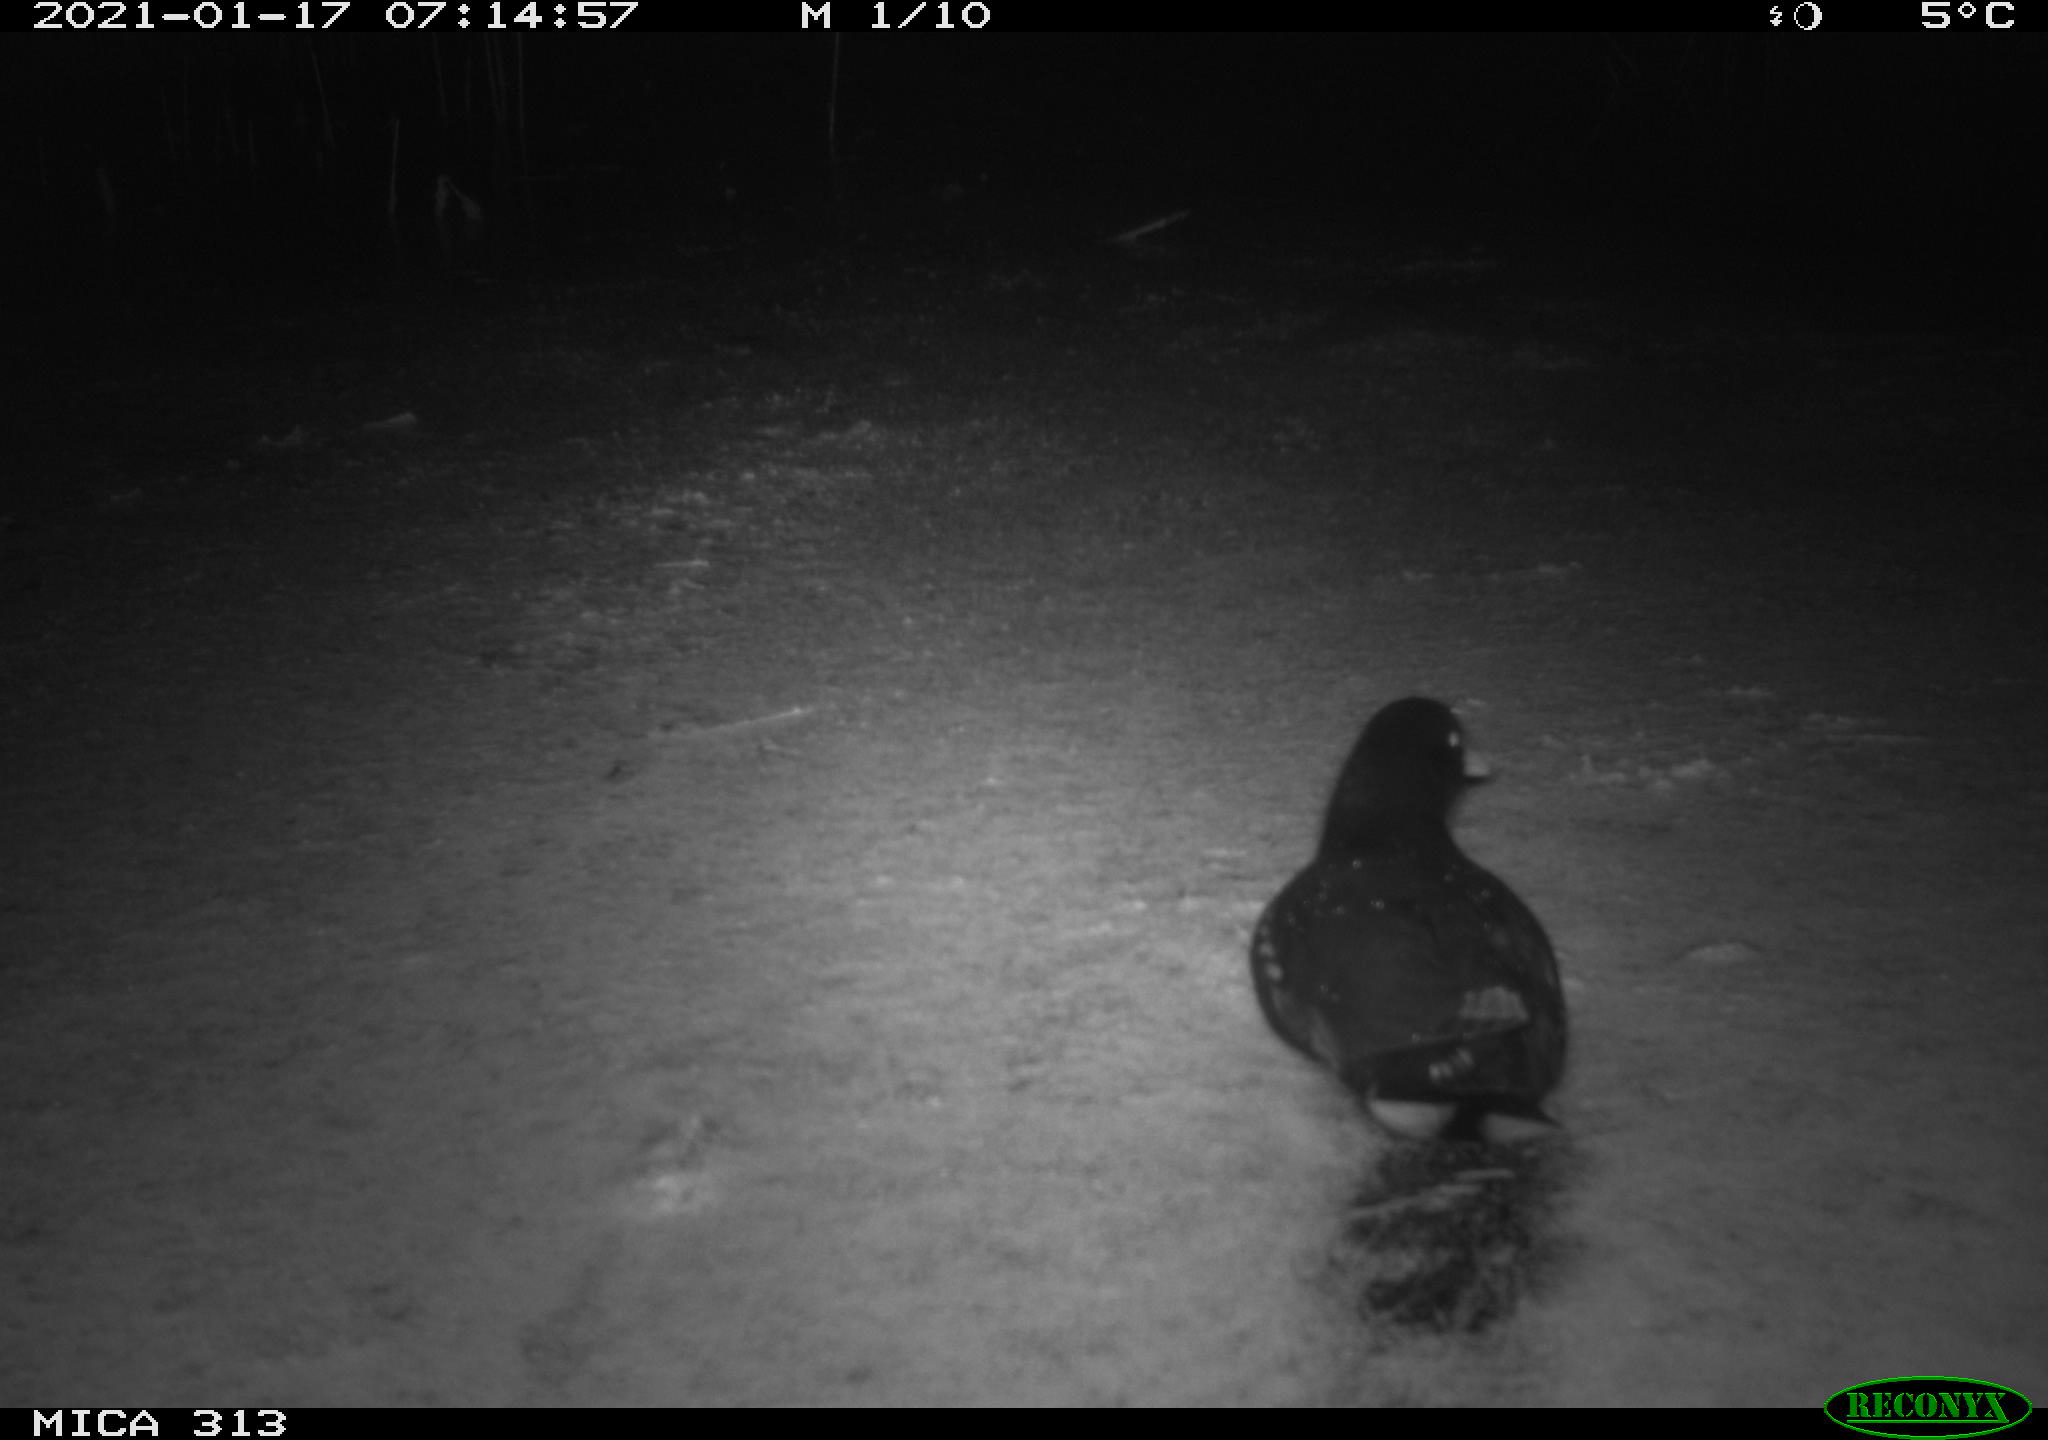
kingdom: Animalia
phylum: Chordata
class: Aves
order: Gruiformes
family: Rallidae
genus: Gallinula
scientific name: Gallinula chloropus
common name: Common moorhen
